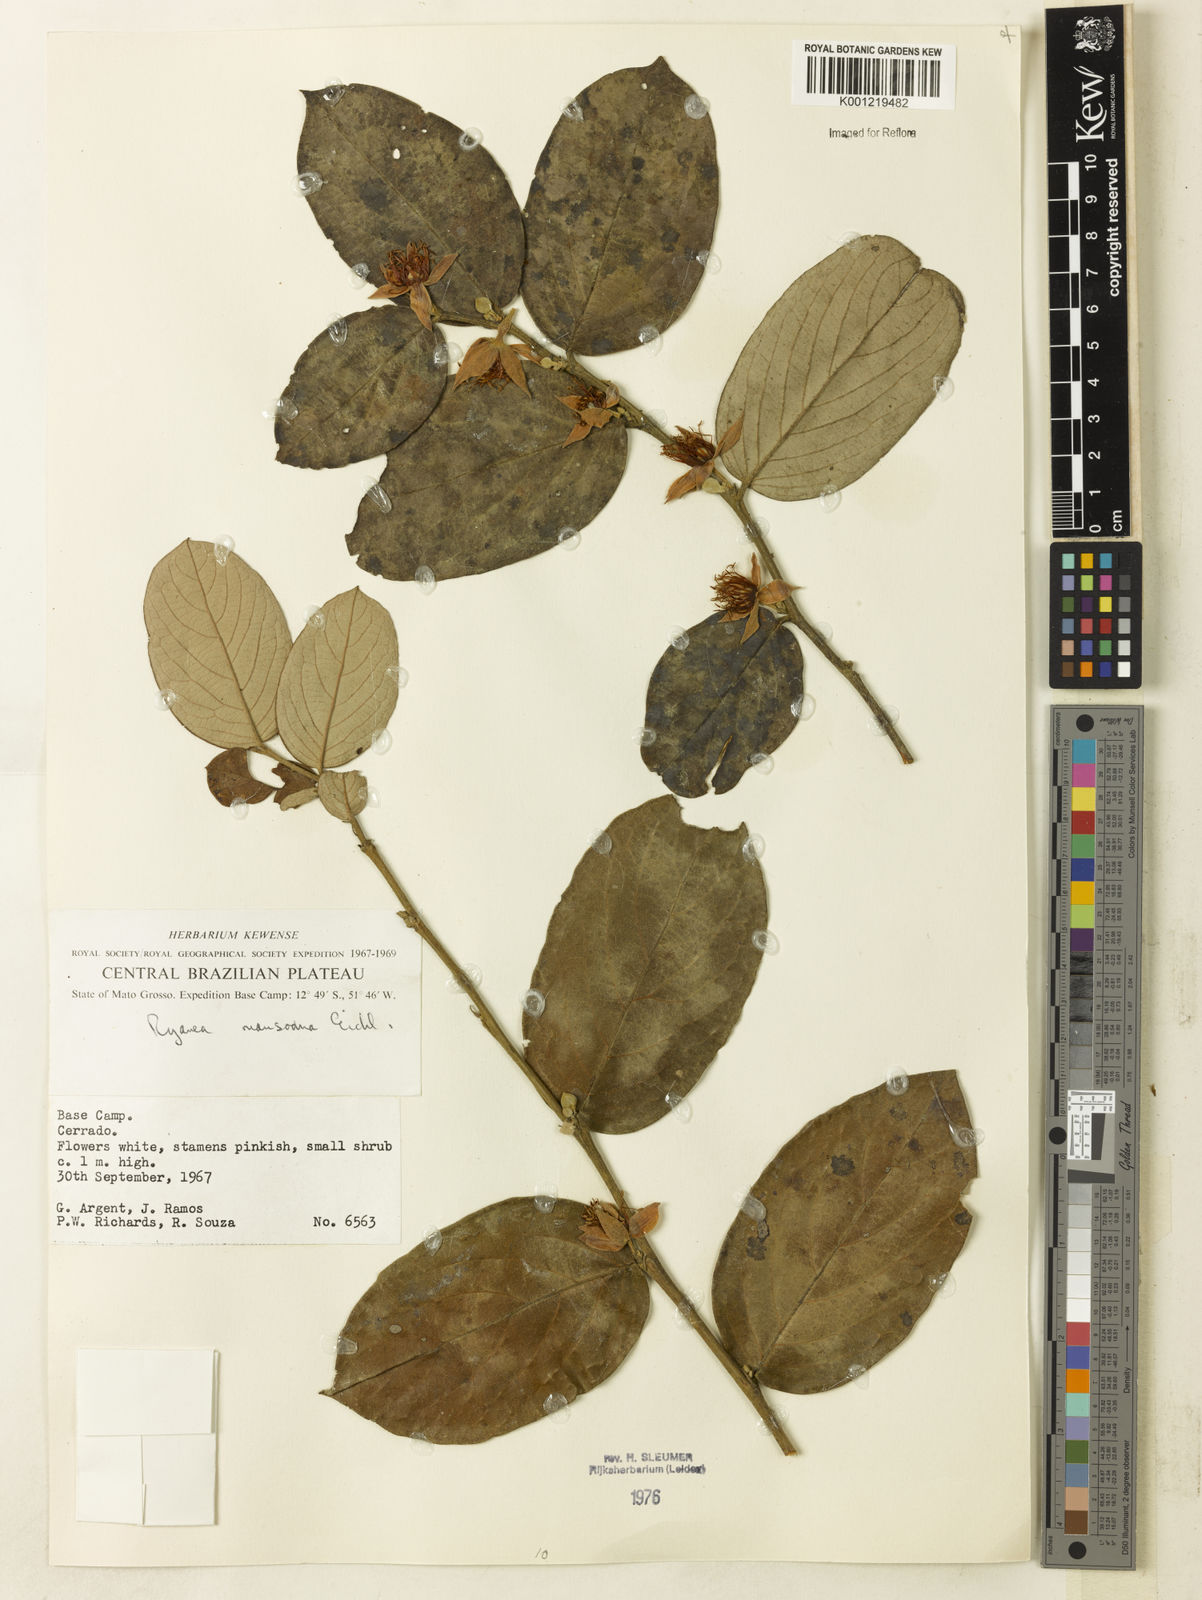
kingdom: Plantae
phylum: Tracheophyta
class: Magnoliopsida
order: Malpighiales
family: Salicaceae
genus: Ryania
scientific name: Ryania mansoana
